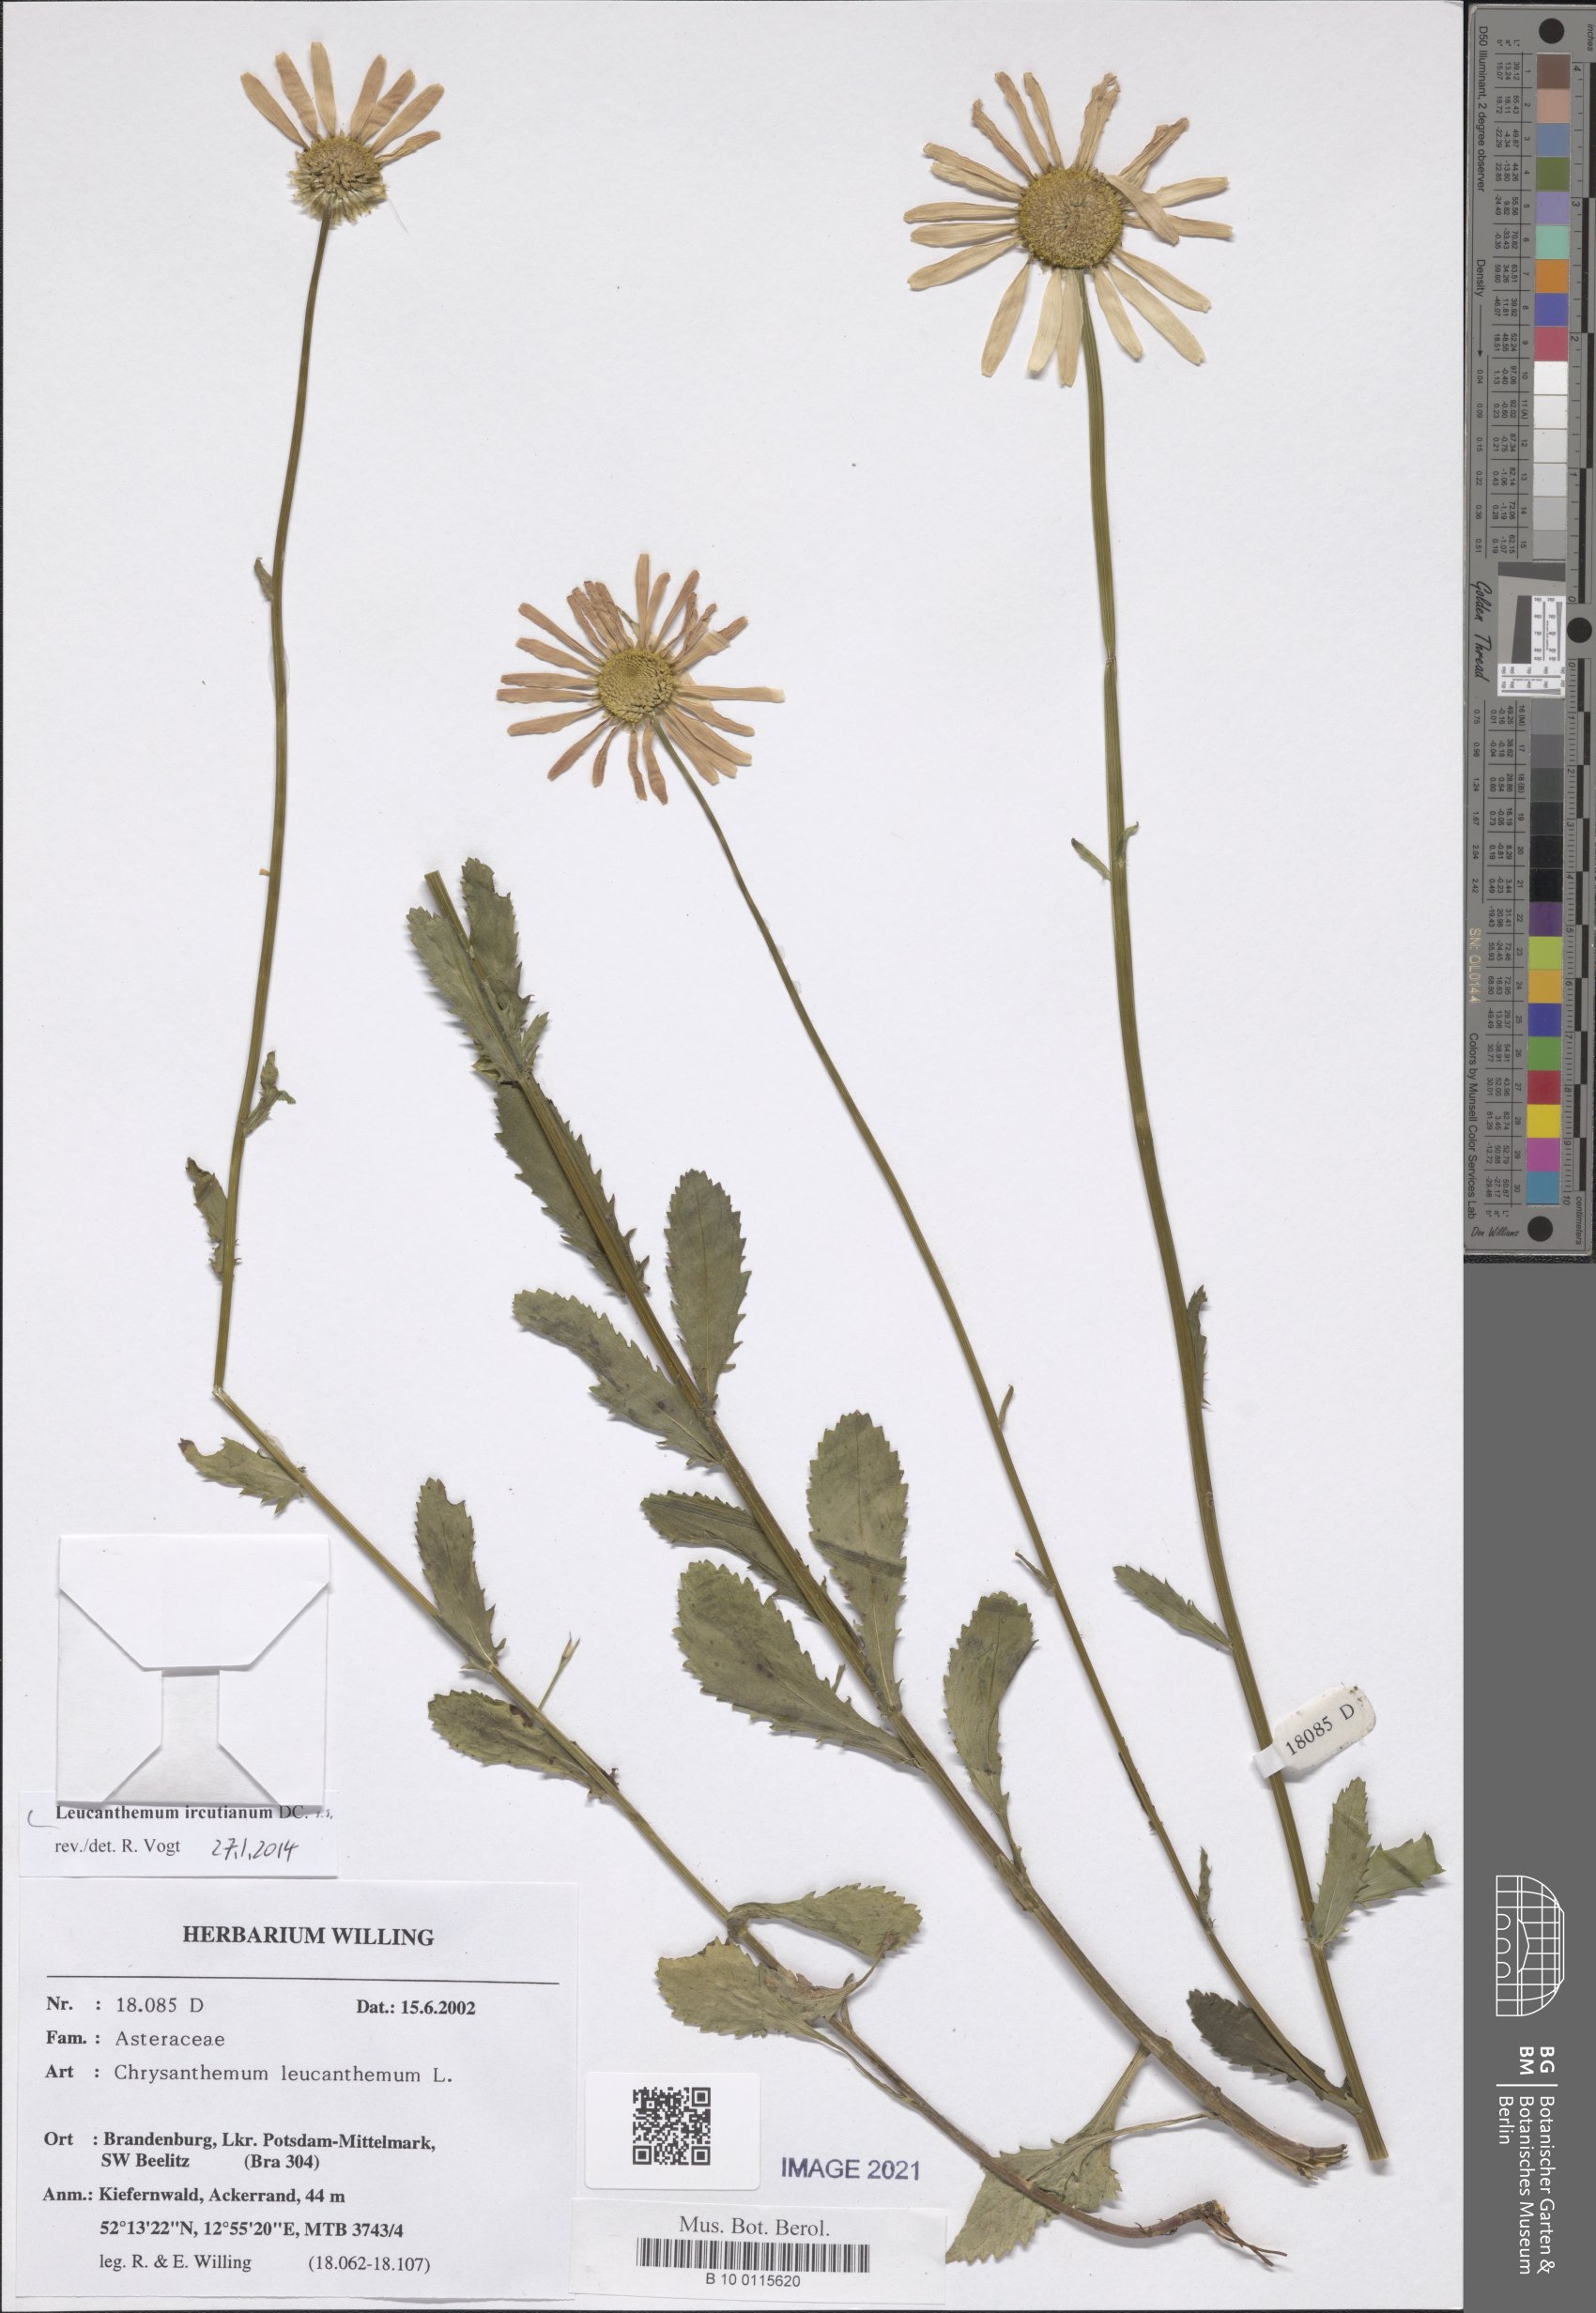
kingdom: Plantae
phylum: Tracheophyta
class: Magnoliopsida
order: Asterales
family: Asteraceae
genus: Leucanthemum
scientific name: Leucanthemum ircutianum
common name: Daisy
